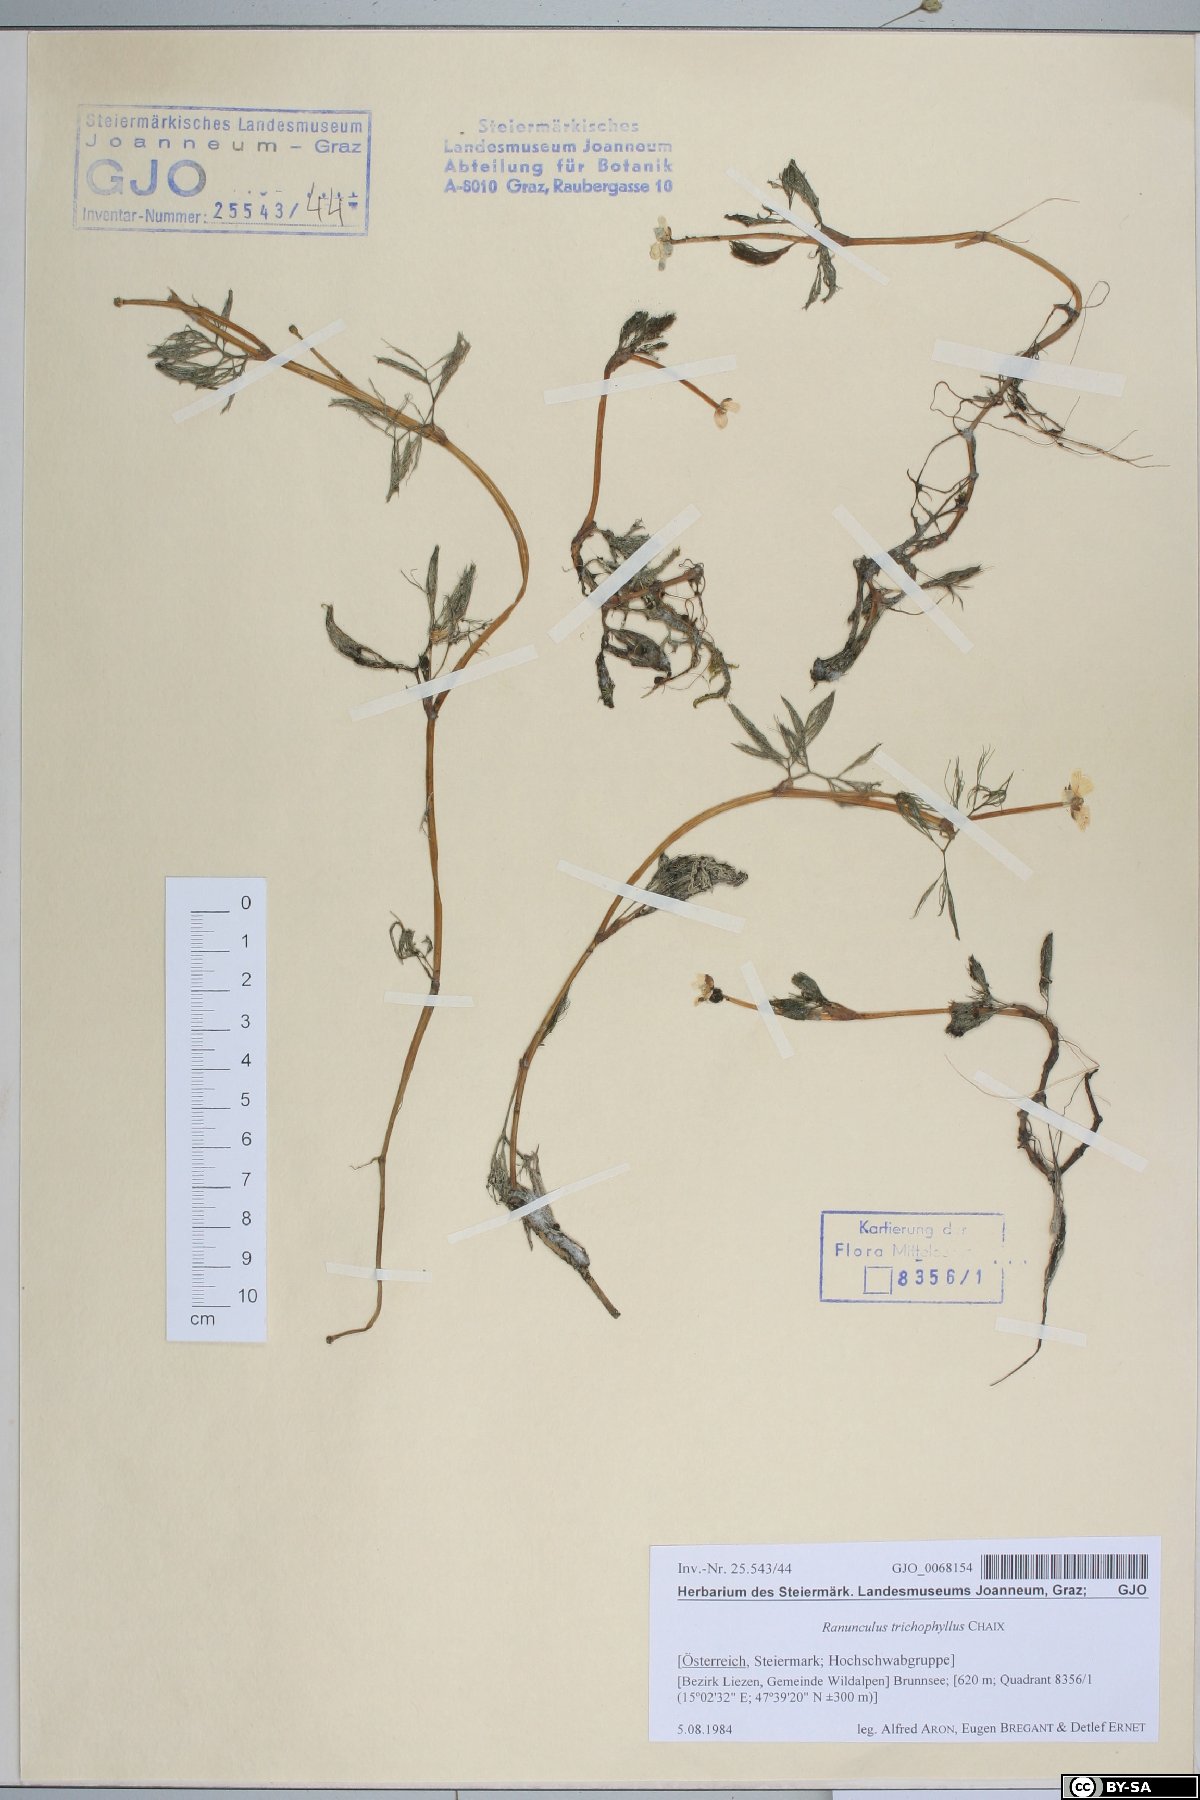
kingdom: Plantae
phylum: Tracheophyta
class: Magnoliopsida
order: Ranunculales
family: Ranunculaceae
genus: Ranunculus
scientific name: Ranunculus trichophyllus
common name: Thread-leaved water-crowfoot
